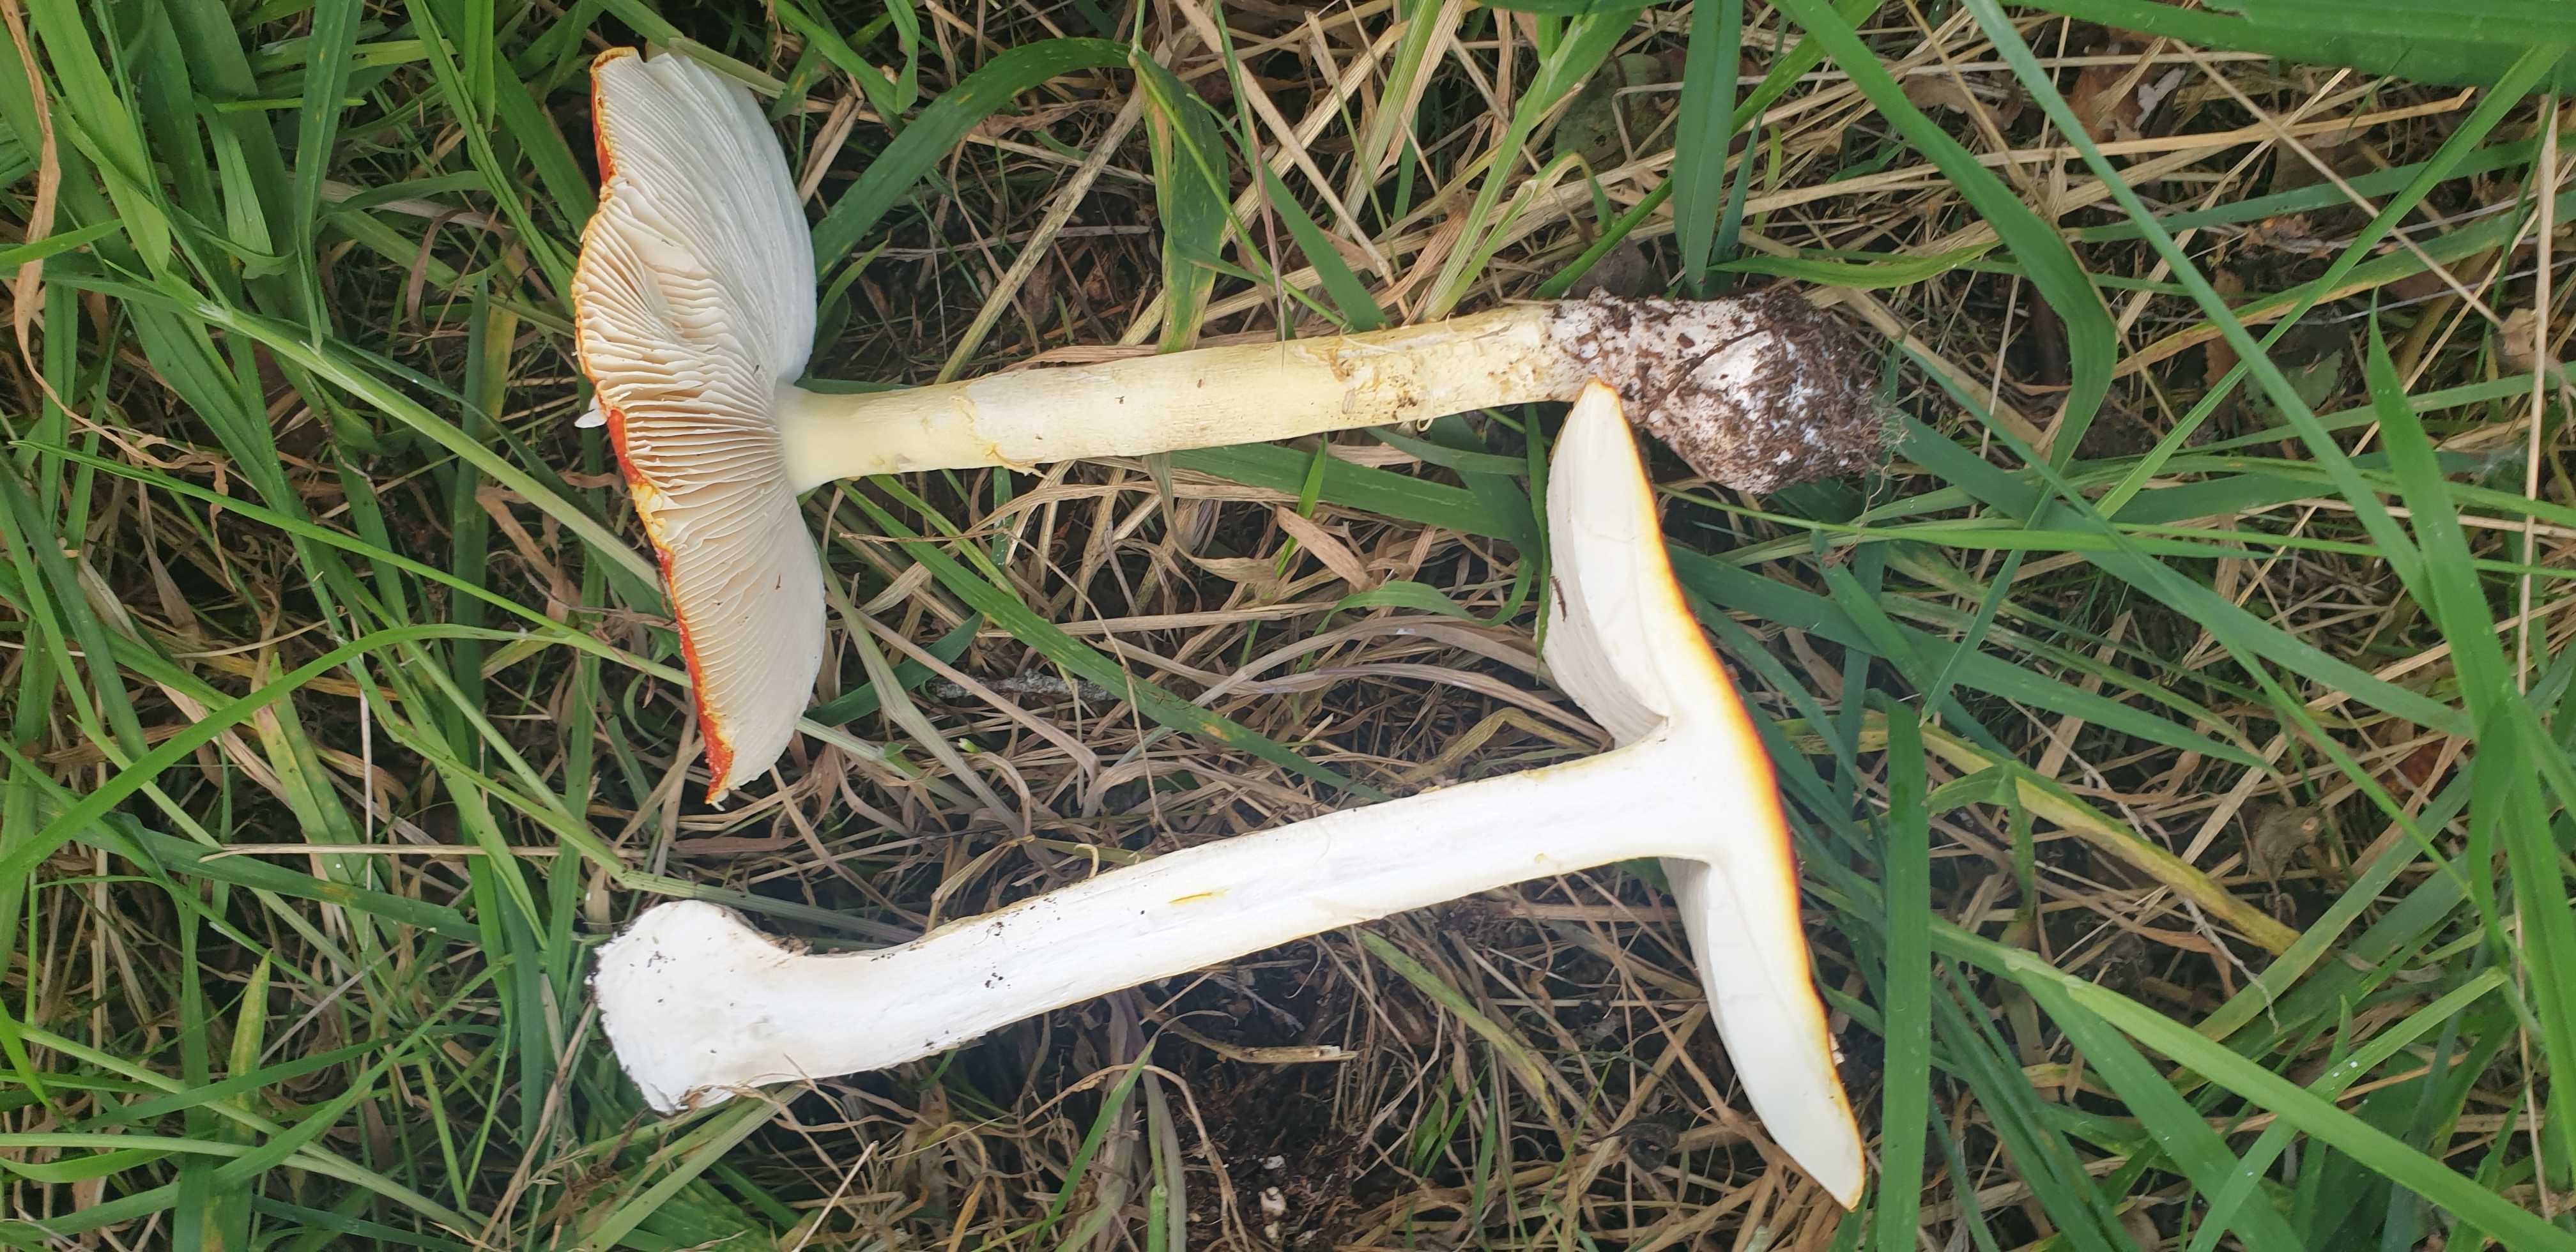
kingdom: Fungi
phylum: Basidiomycota
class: Agaricomycetes
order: Agaricales
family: Amanitaceae
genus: Amanita
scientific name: Amanita muscaria
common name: rød fluesvamp
